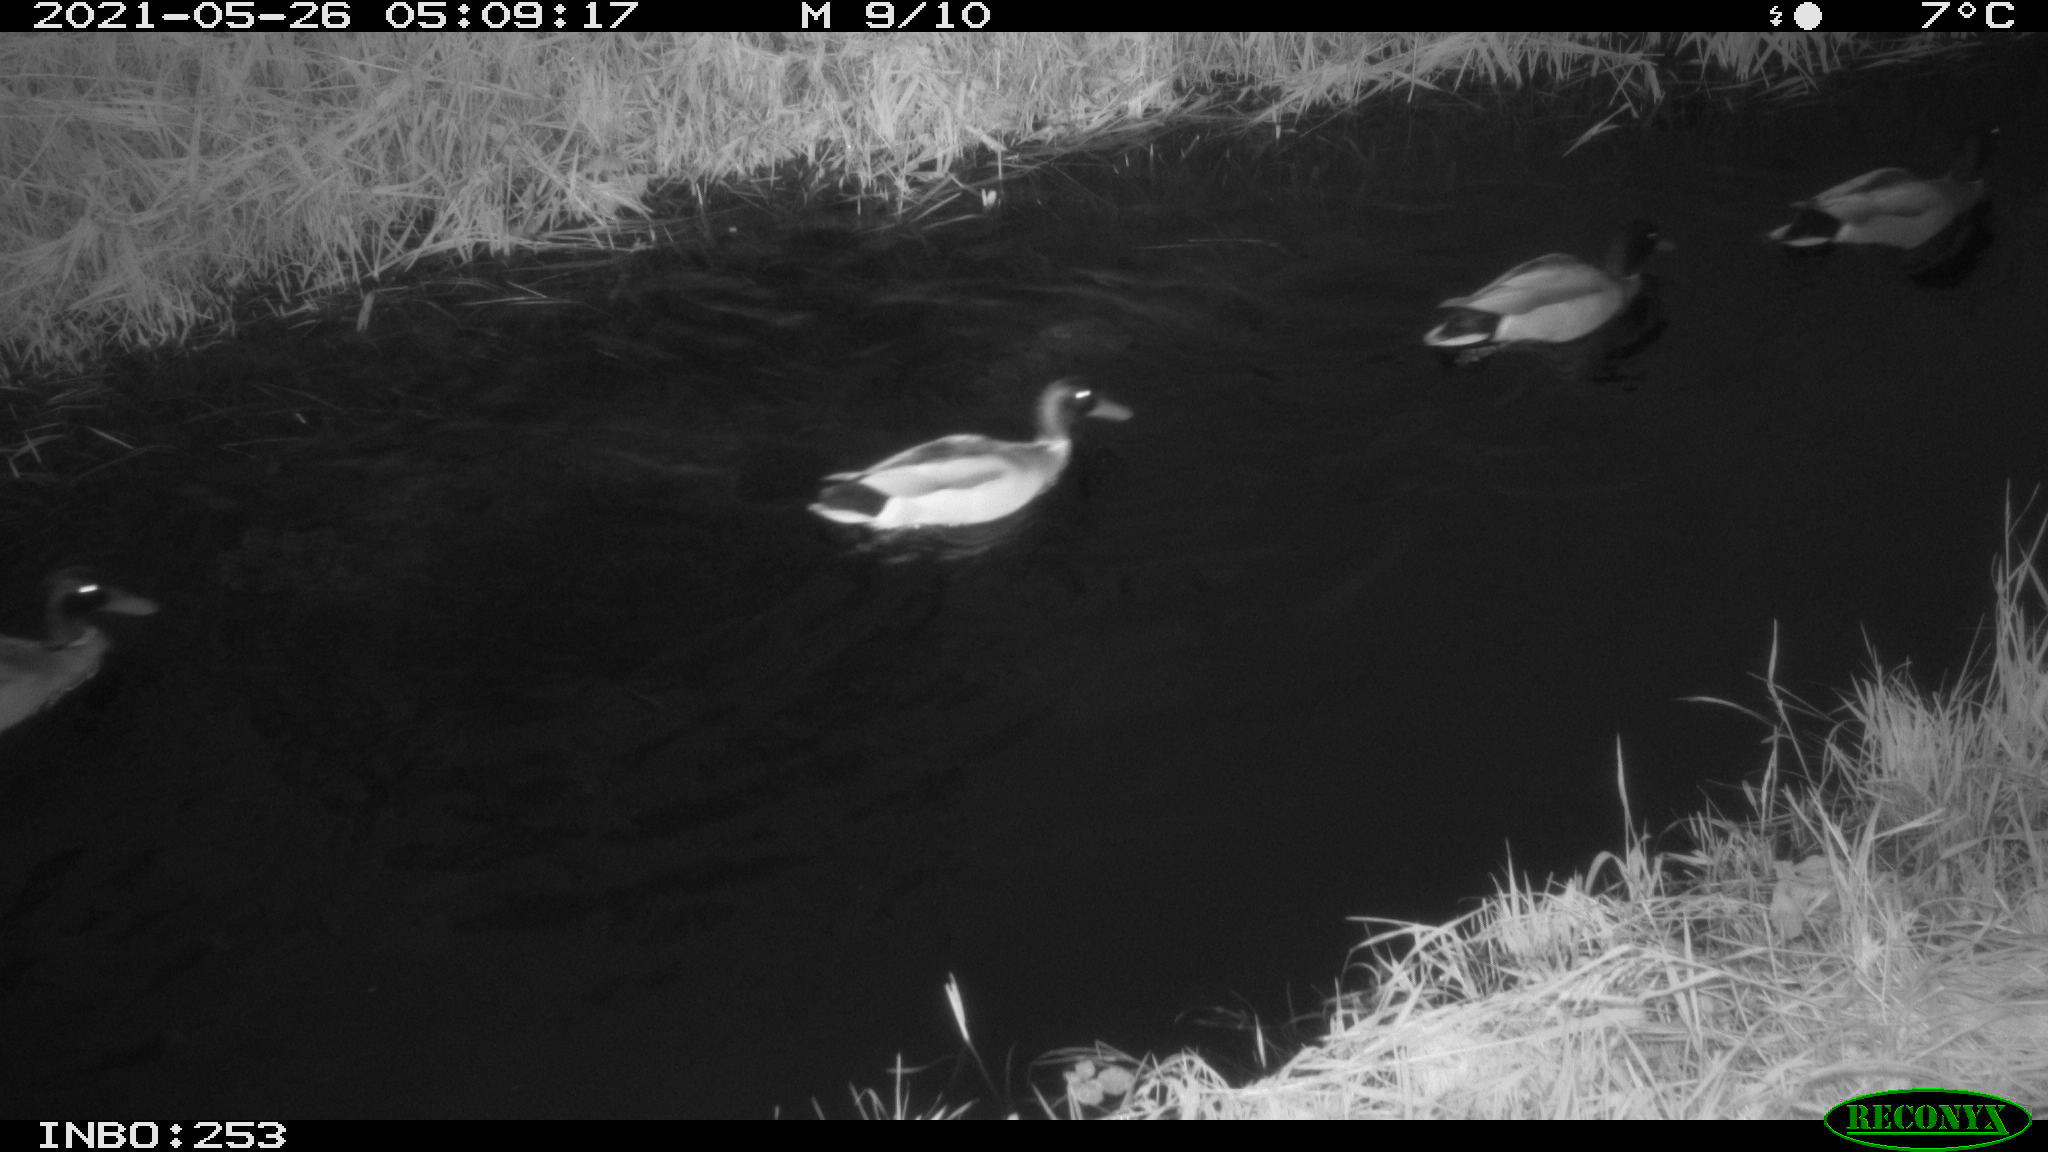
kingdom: Animalia
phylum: Chordata
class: Aves
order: Anseriformes
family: Anatidae
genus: Anas
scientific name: Anas
